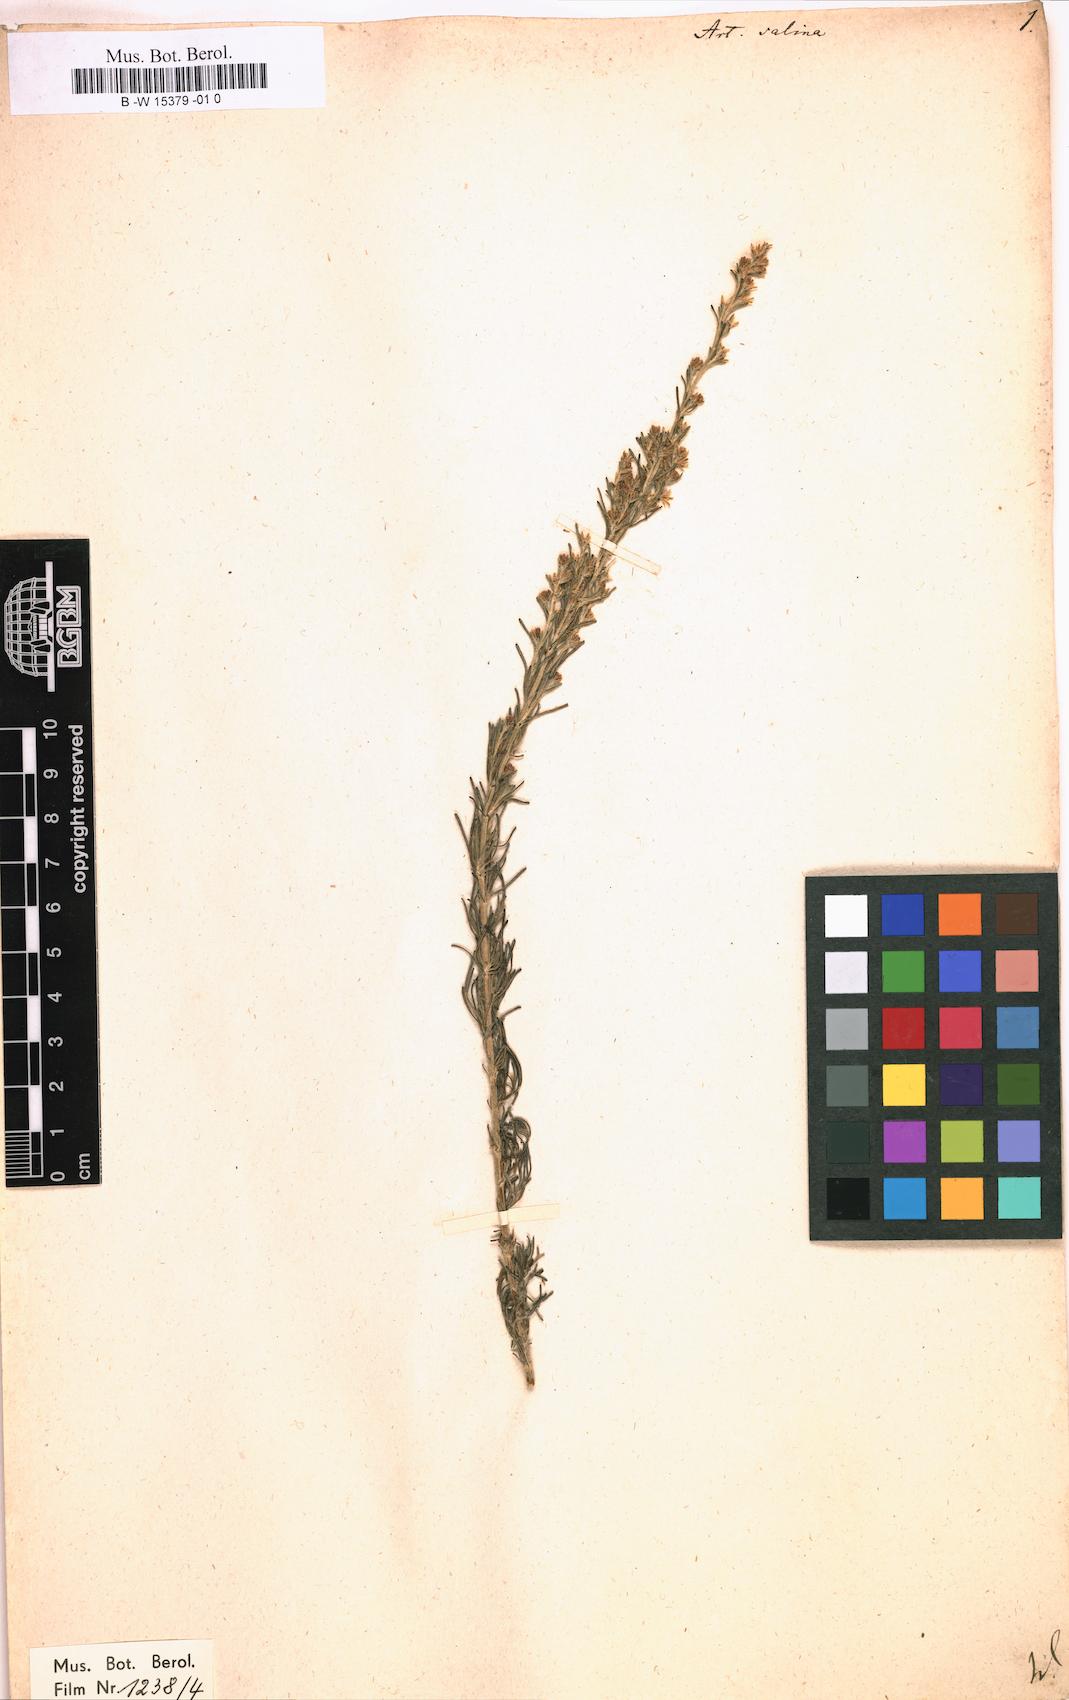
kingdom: Plantae
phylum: Tracheophyta
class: Magnoliopsida
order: Asterales
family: Asteraceae
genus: Artemisia
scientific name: Artemisia maritima
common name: Wormseed
